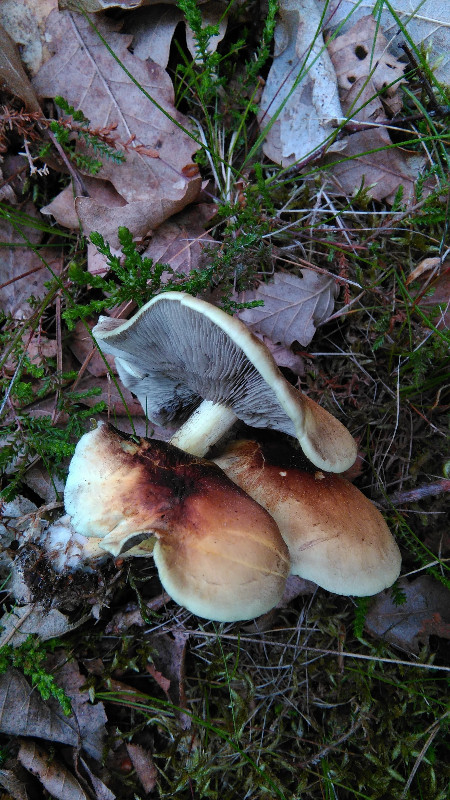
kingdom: Fungi
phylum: Basidiomycota
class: Agaricomycetes
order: Agaricales
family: Strophariaceae
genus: Hypholoma
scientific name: Hypholoma fasciculare
